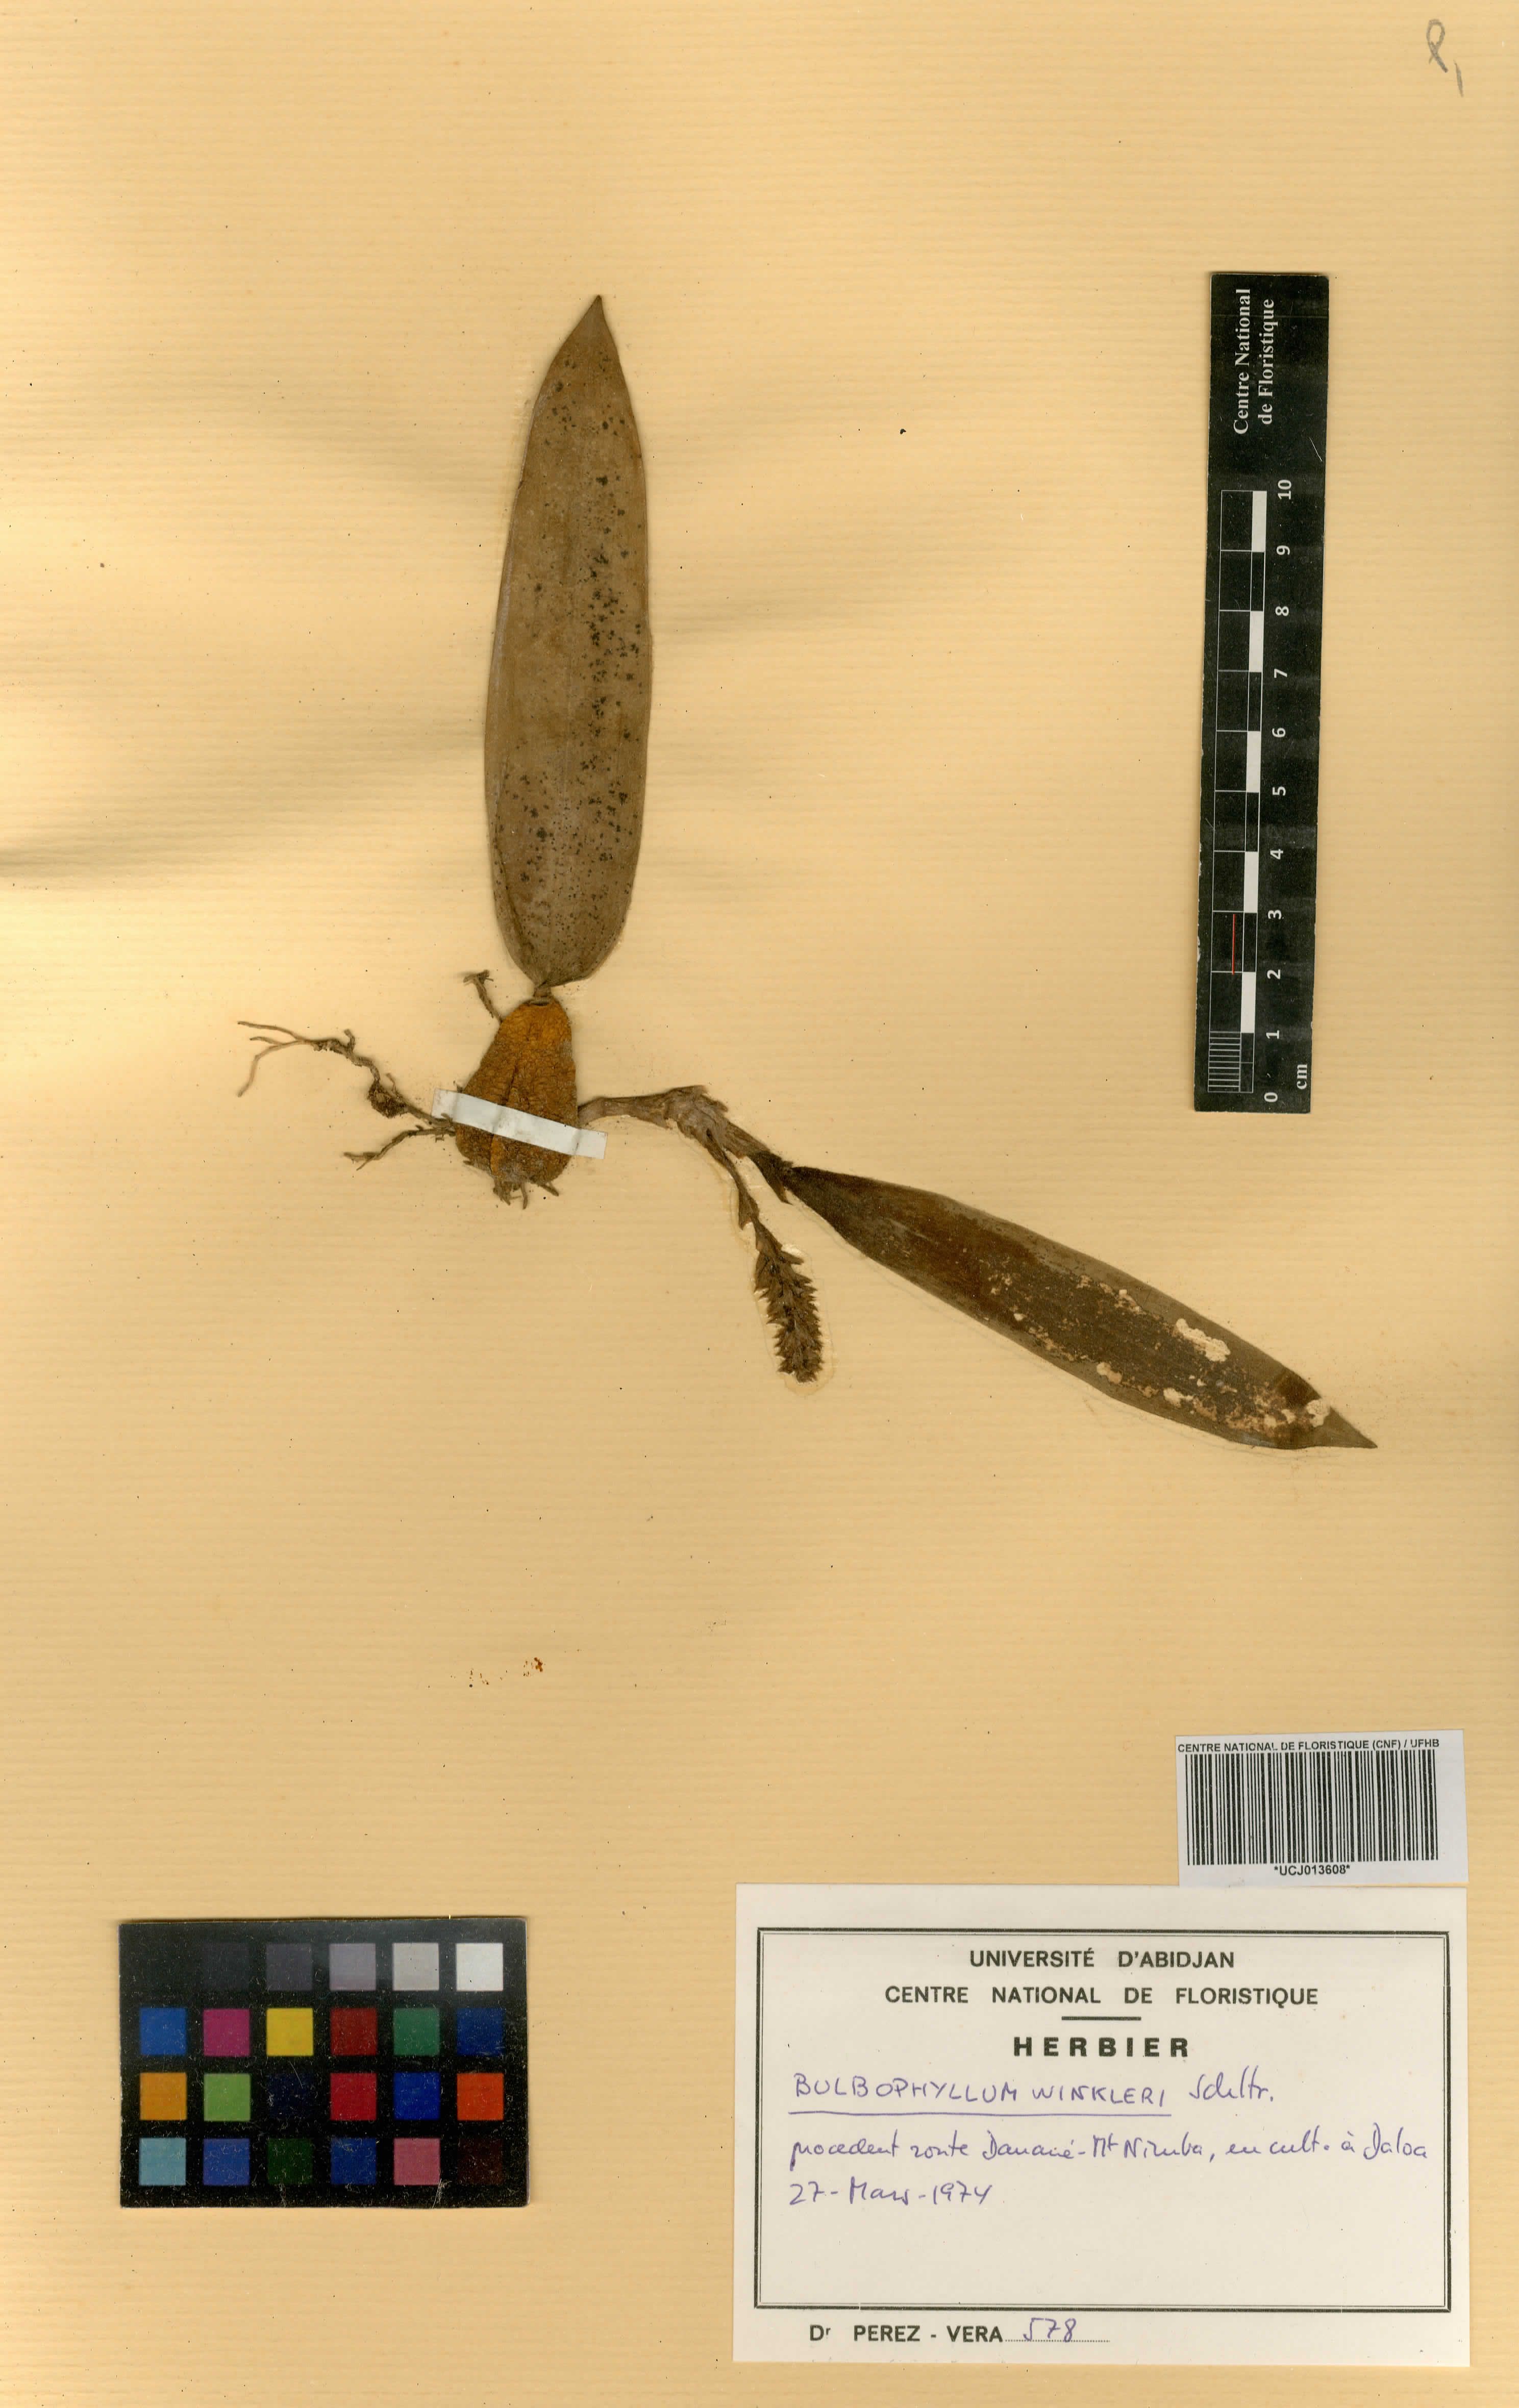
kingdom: Plantae
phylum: Tracheophyta
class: Liliopsida
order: Asparagales
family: Orchidaceae
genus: Bulbophyllum
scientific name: Bulbophyllum
